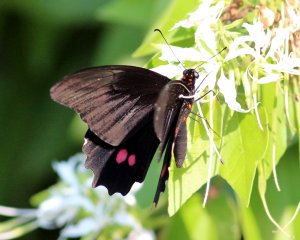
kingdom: Animalia
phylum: Arthropoda
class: Insecta
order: Lepidoptera
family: Papilionidae
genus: Papilio
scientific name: Papilio anchisiades
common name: Ruby-spotted Swallowtail
